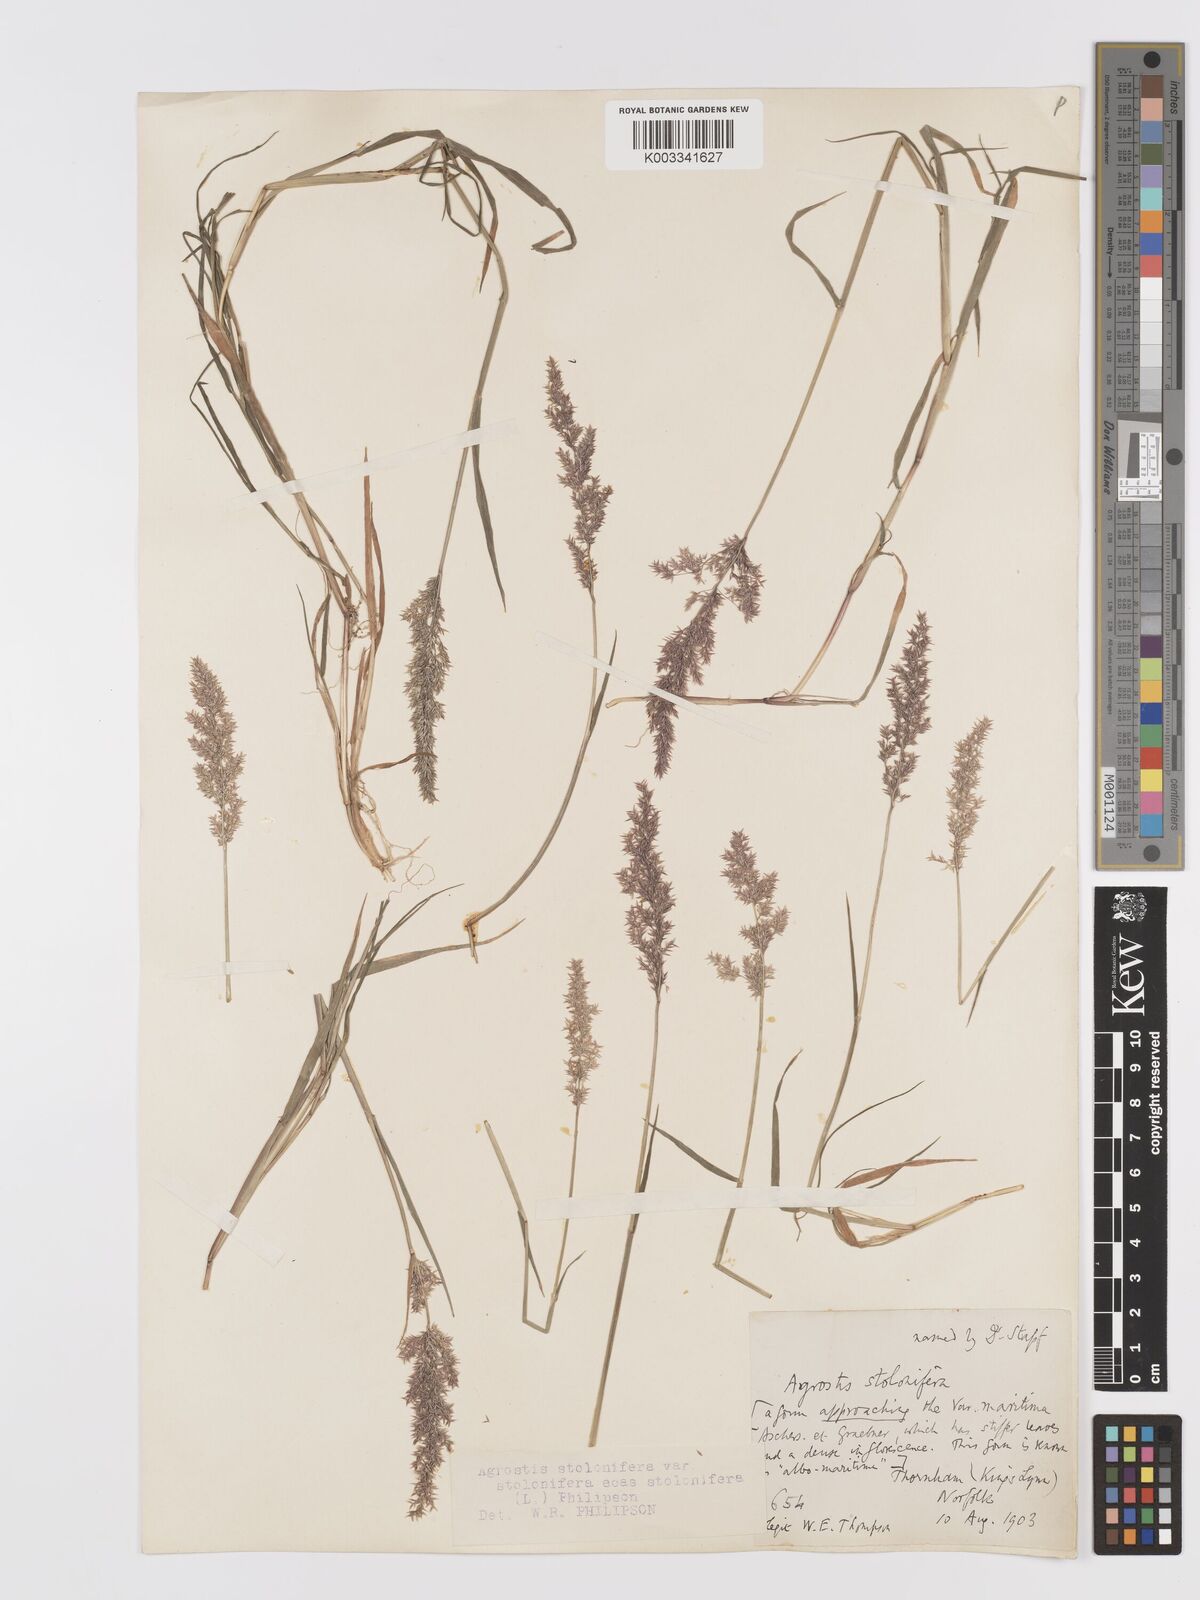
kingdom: Plantae
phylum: Tracheophyta
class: Liliopsida
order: Poales
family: Poaceae
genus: Agrostis
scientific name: Agrostis stolonifera
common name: Creeping bentgrass
